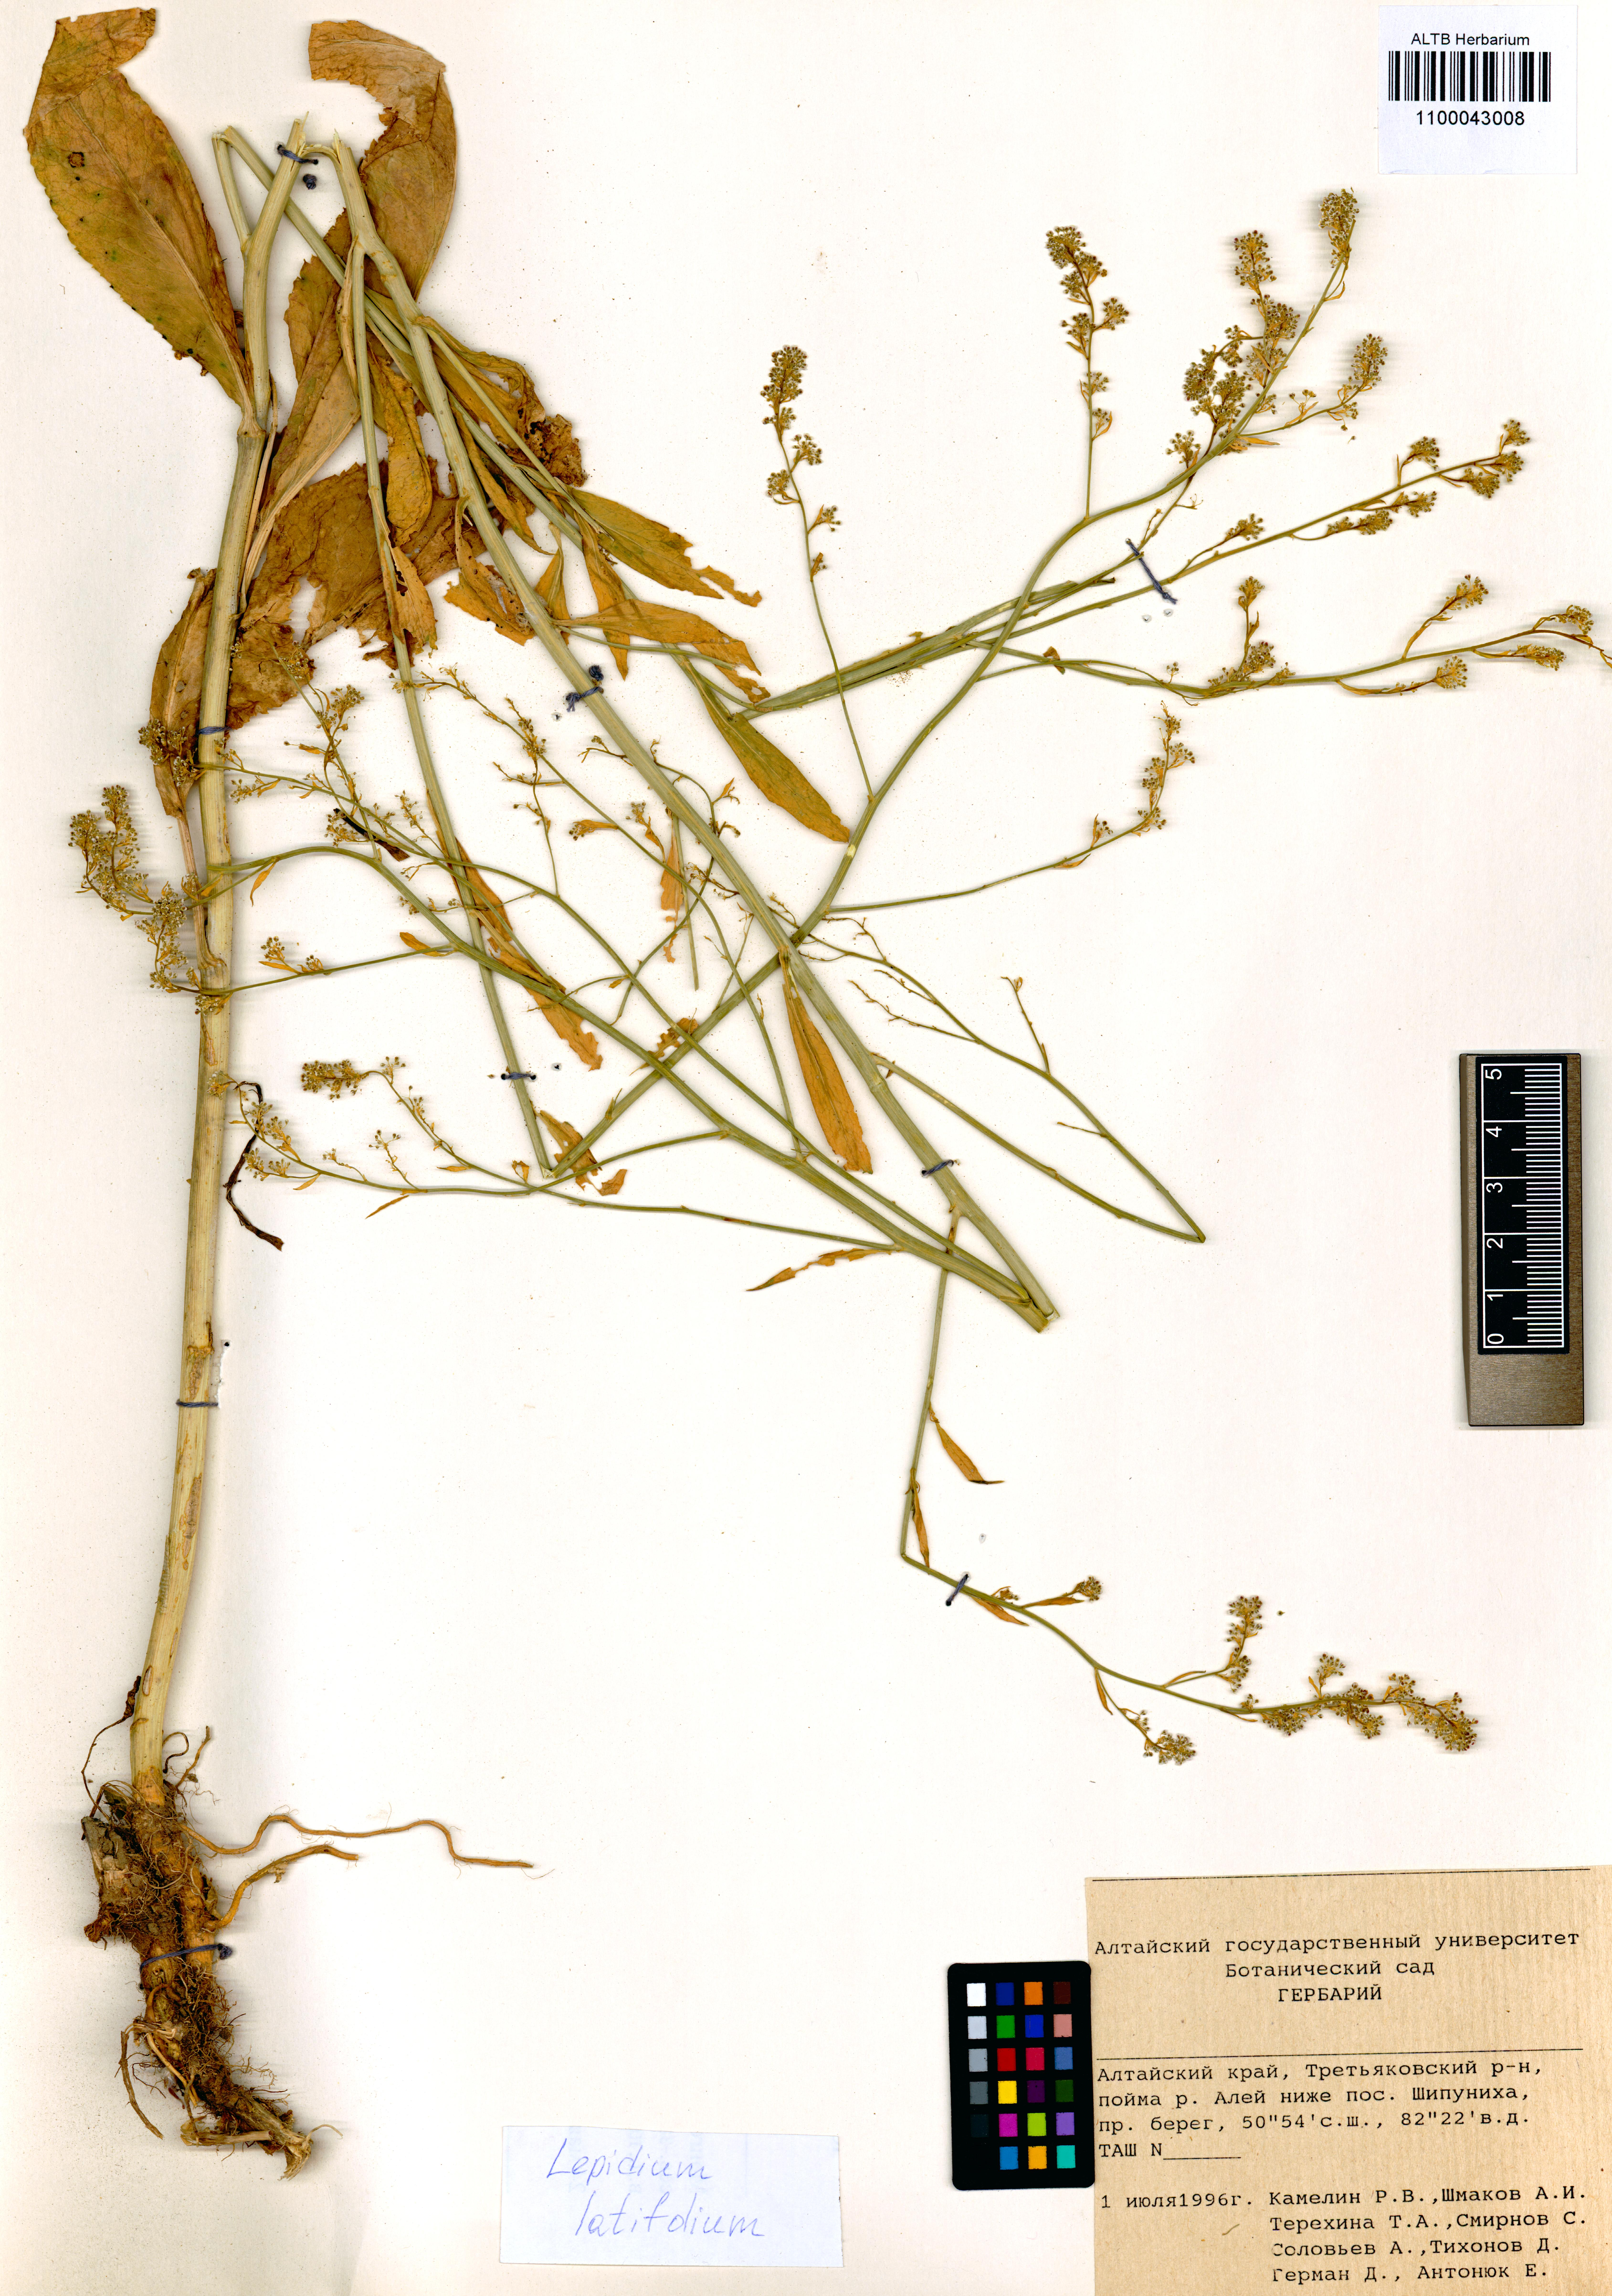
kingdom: Plantae
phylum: Tracheophyta
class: Magnoliopsida
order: Brassicales
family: Brassicaceae
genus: Lepidium
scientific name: Lepidium latifolium
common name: Dittander
